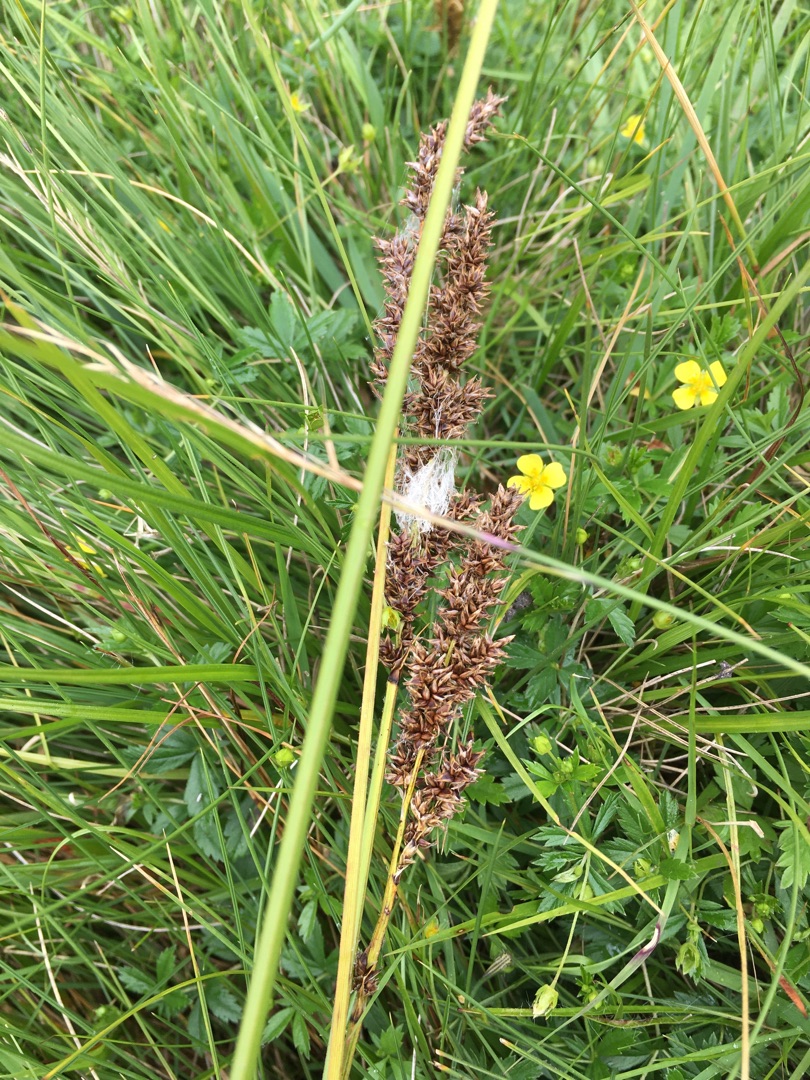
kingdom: Plantae
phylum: Tracheophyta
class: Liliopsida
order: Poales
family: Cyperaceae
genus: Carex
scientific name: Carex paniculata
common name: Top-star
